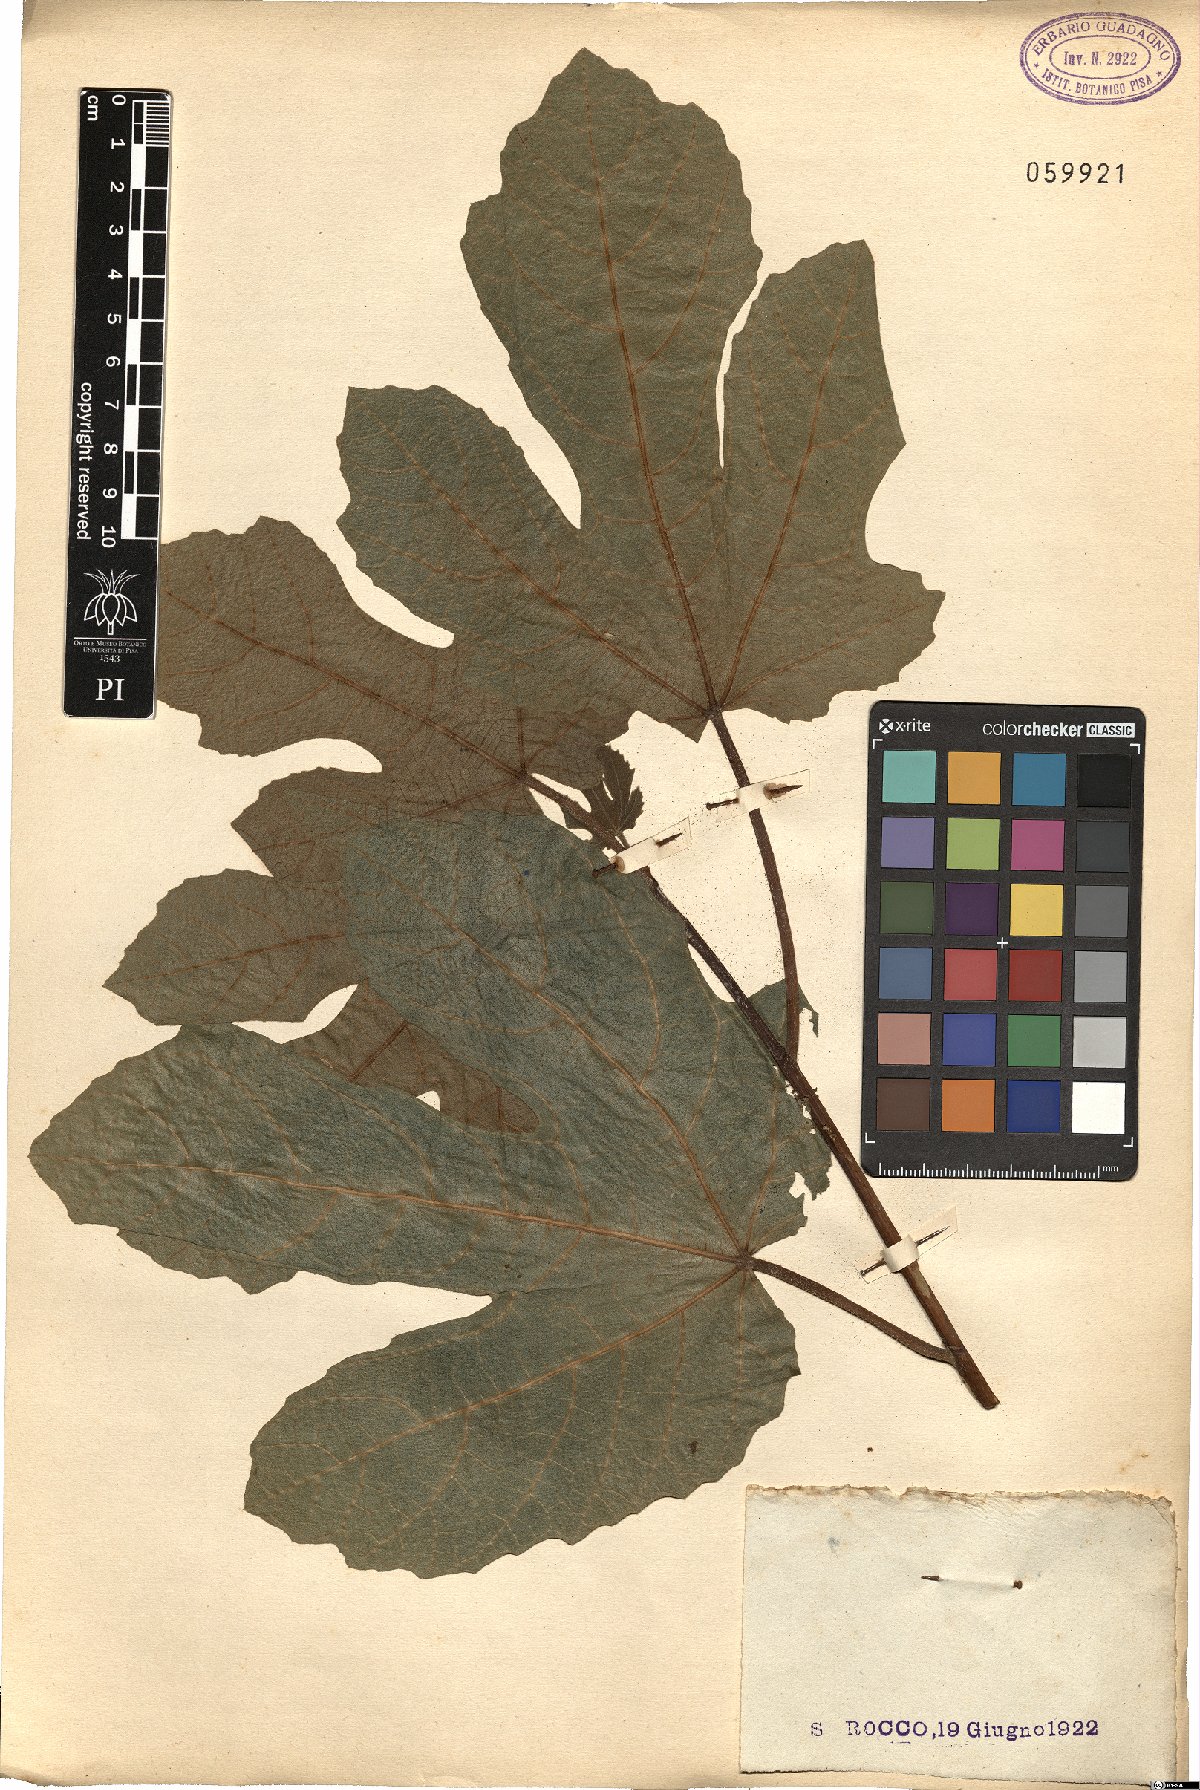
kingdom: Plantae
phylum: Tracheophyta
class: Magnoliopsida
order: Rosales
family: Moraceae
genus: Ficus
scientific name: Ficus carica
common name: Fig
